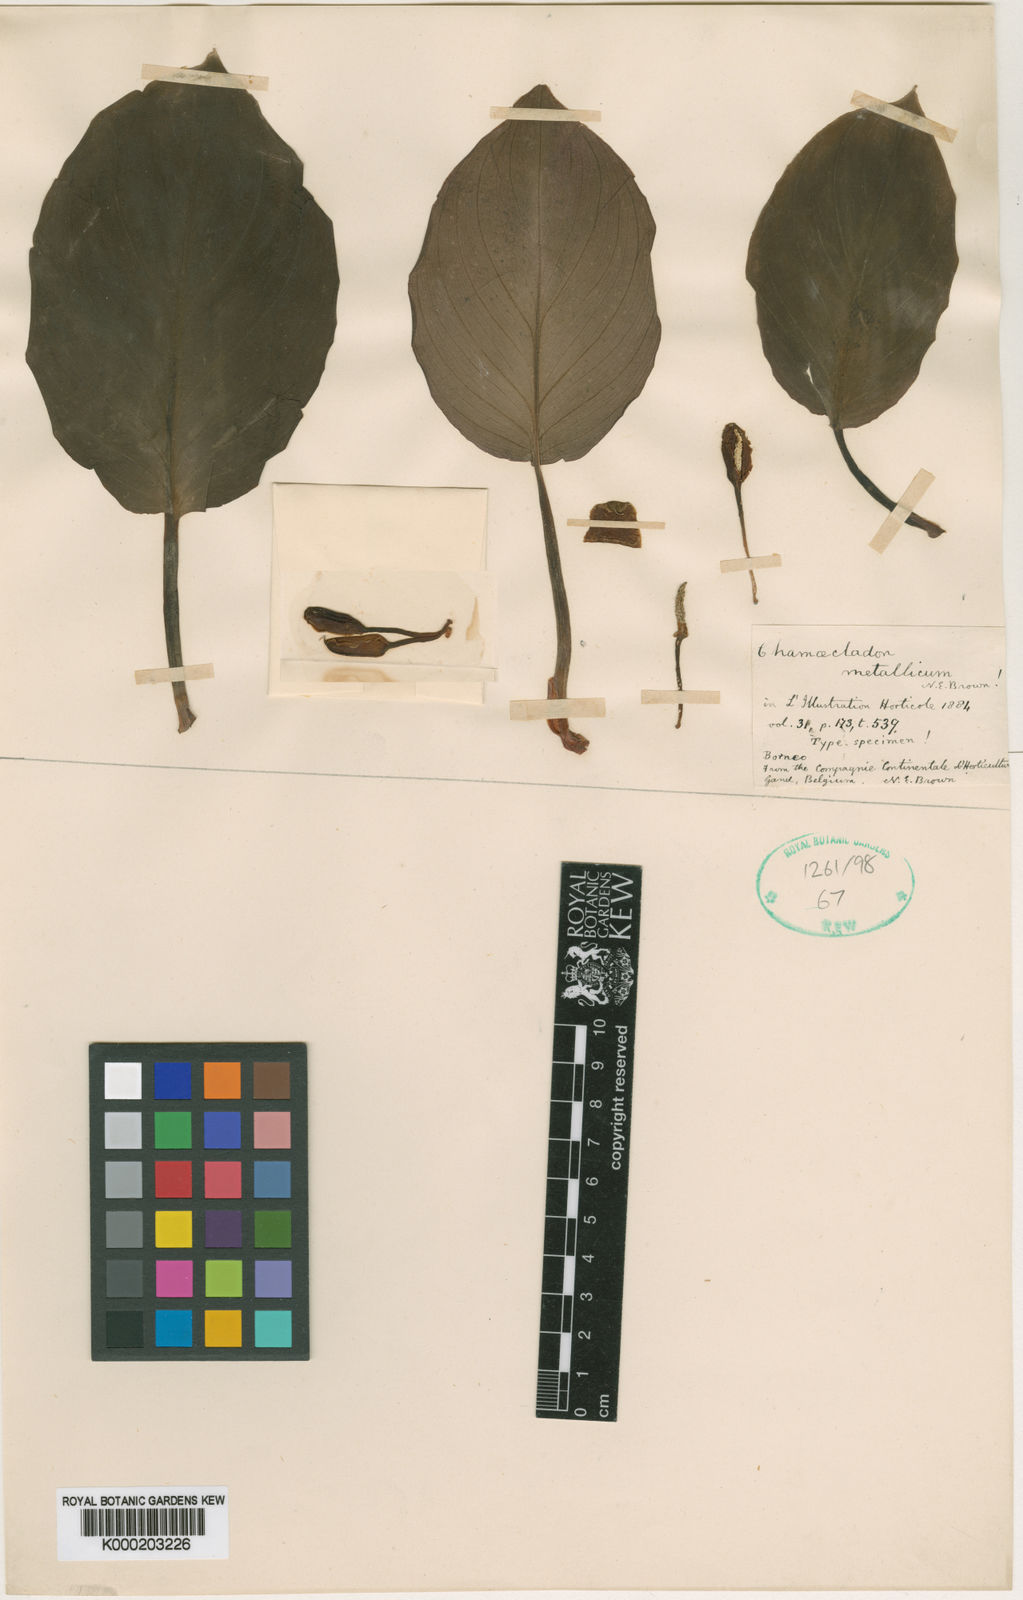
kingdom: Plantae
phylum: Tracheophyta
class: Liliopsida
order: Alismatales
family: Araceae
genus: Homalomena
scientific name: Homalomena metallica
